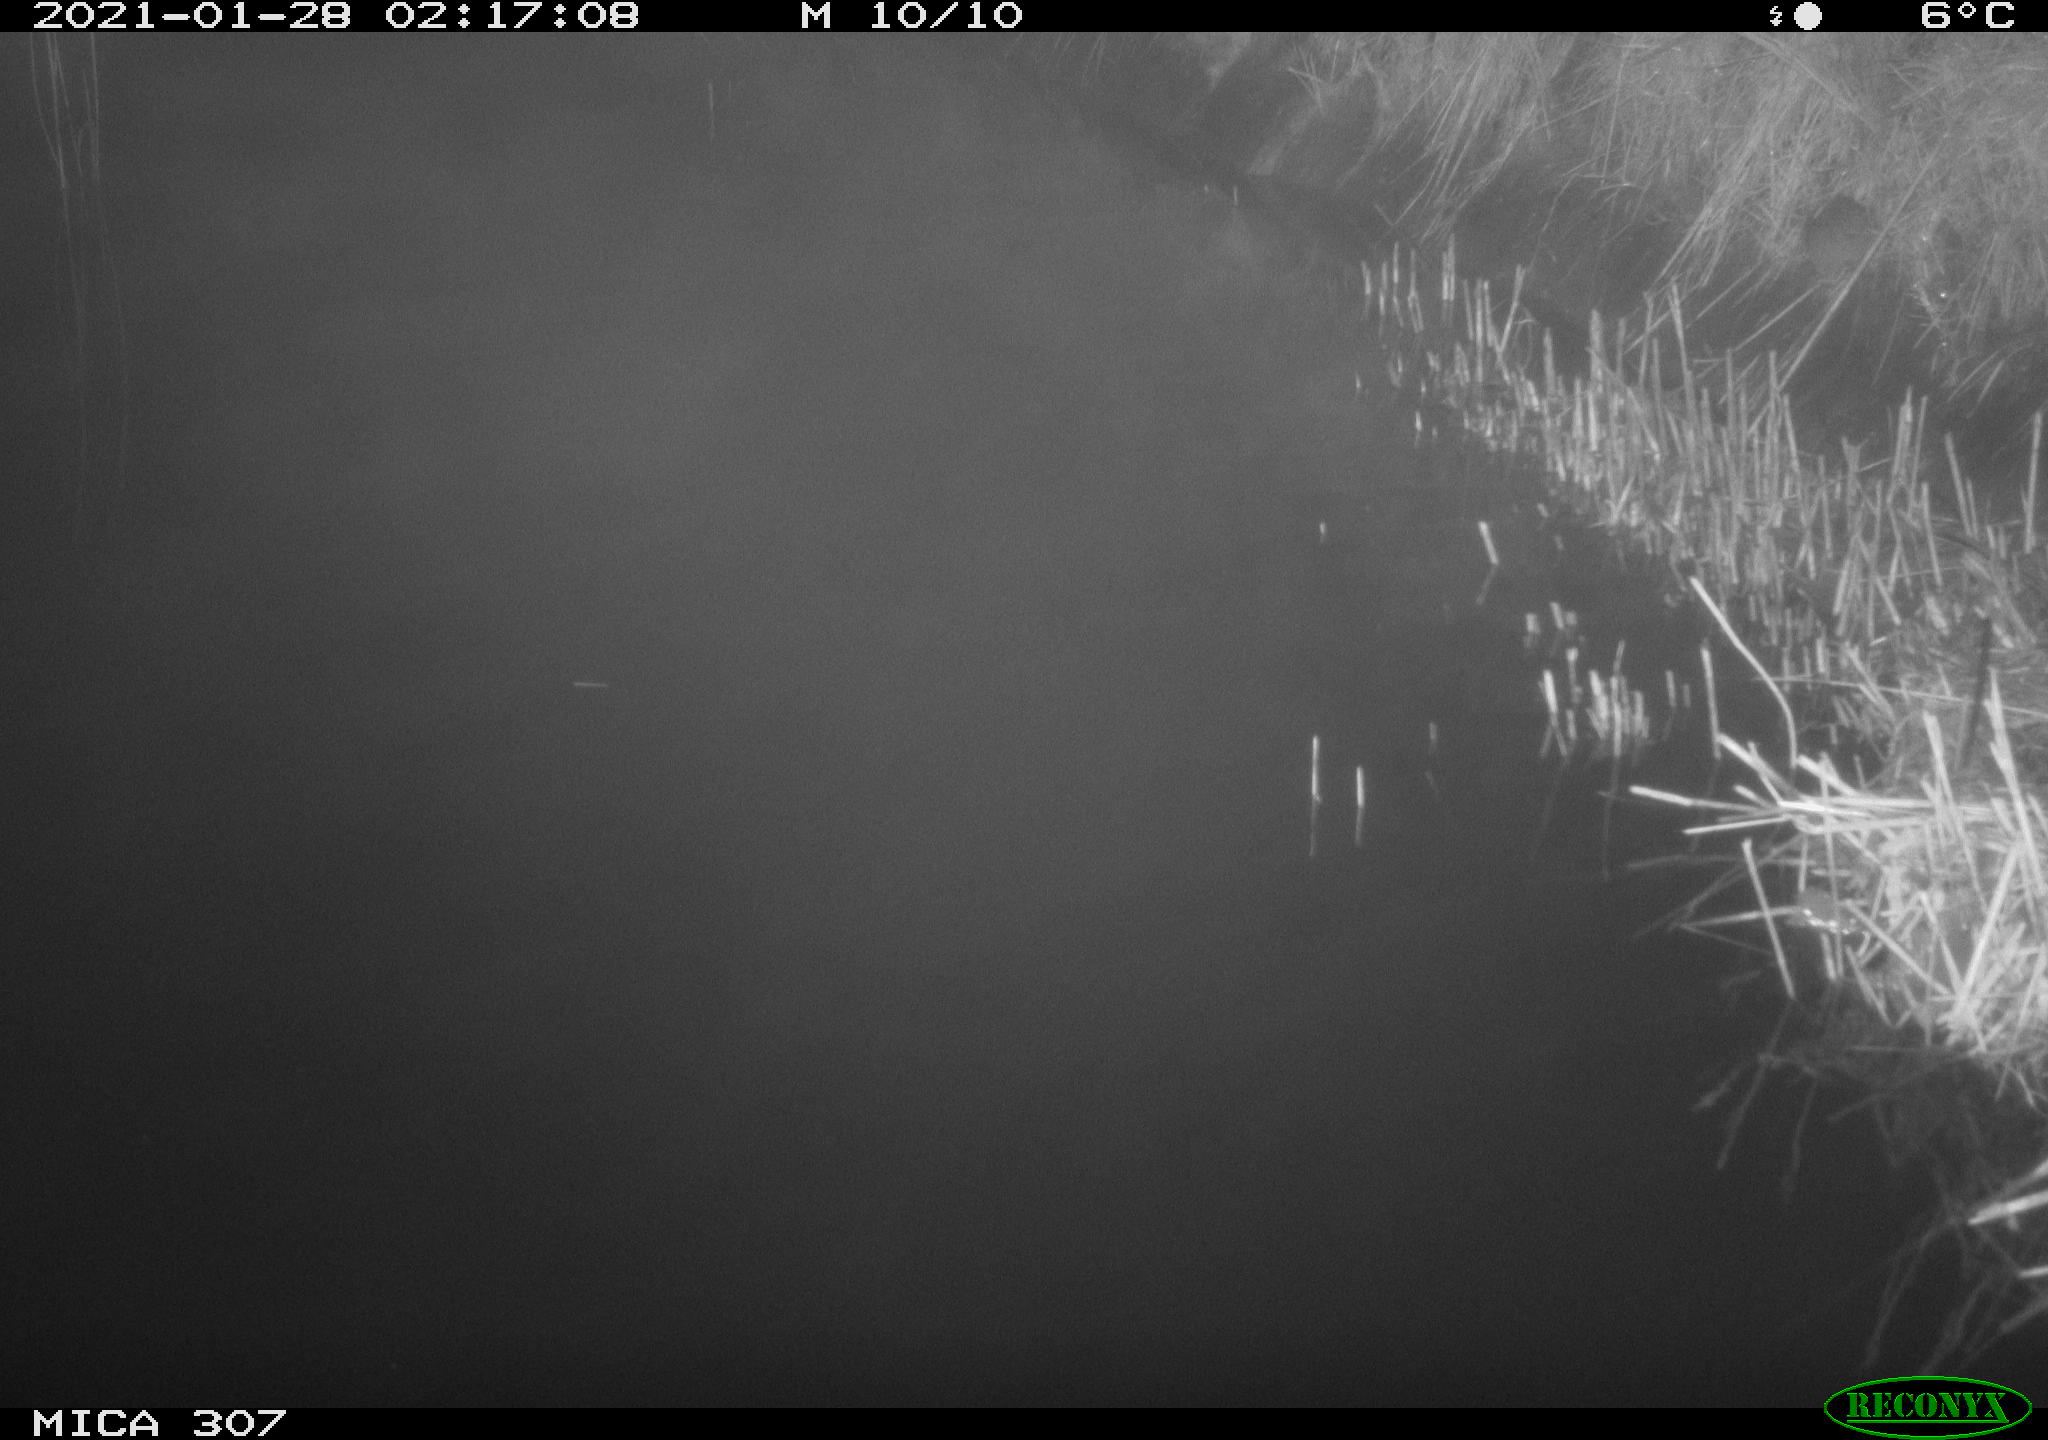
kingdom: Animalia
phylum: Chordata
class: Mammalia
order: Rodentia
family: Muridae
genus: Rattus
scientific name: Rattus norvegicus
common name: Brown rat
